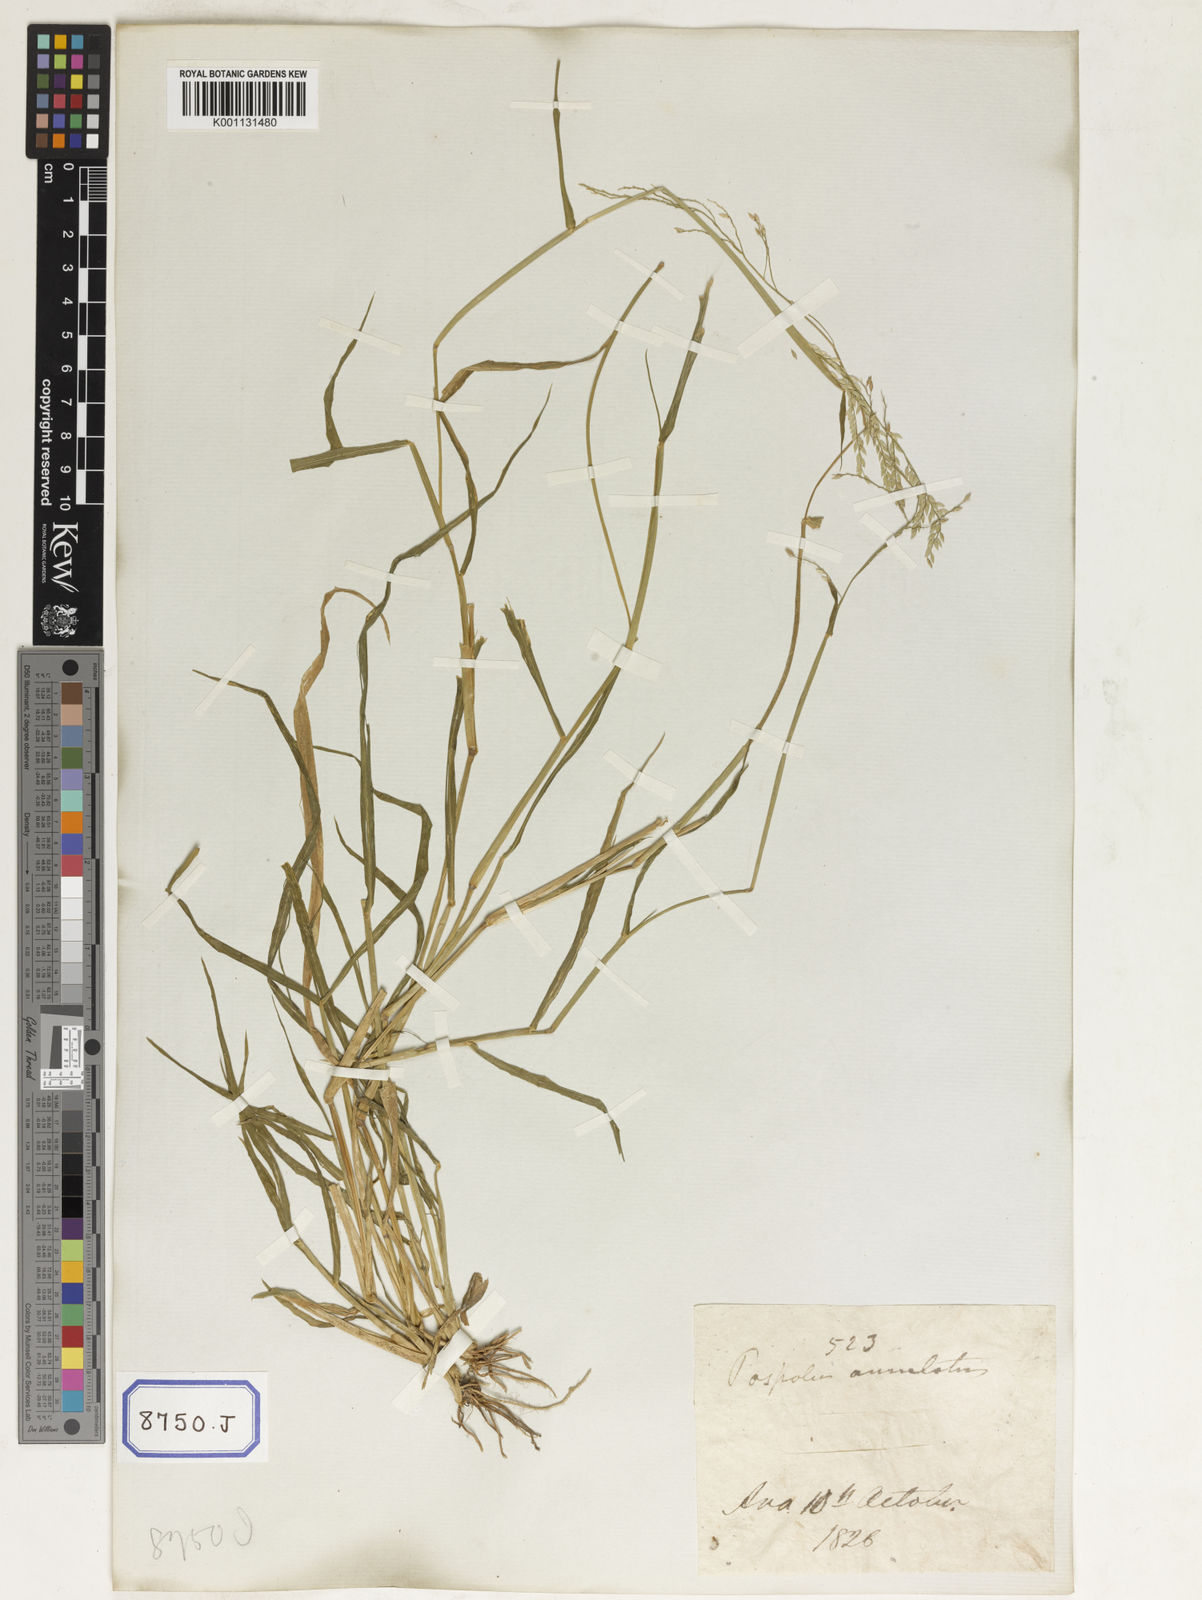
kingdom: Plantae
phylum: Tracheophyta
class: Liliopsida
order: Poales
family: Poaceae
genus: Eriochloa
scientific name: Eriochloa procera
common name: Spring grass
